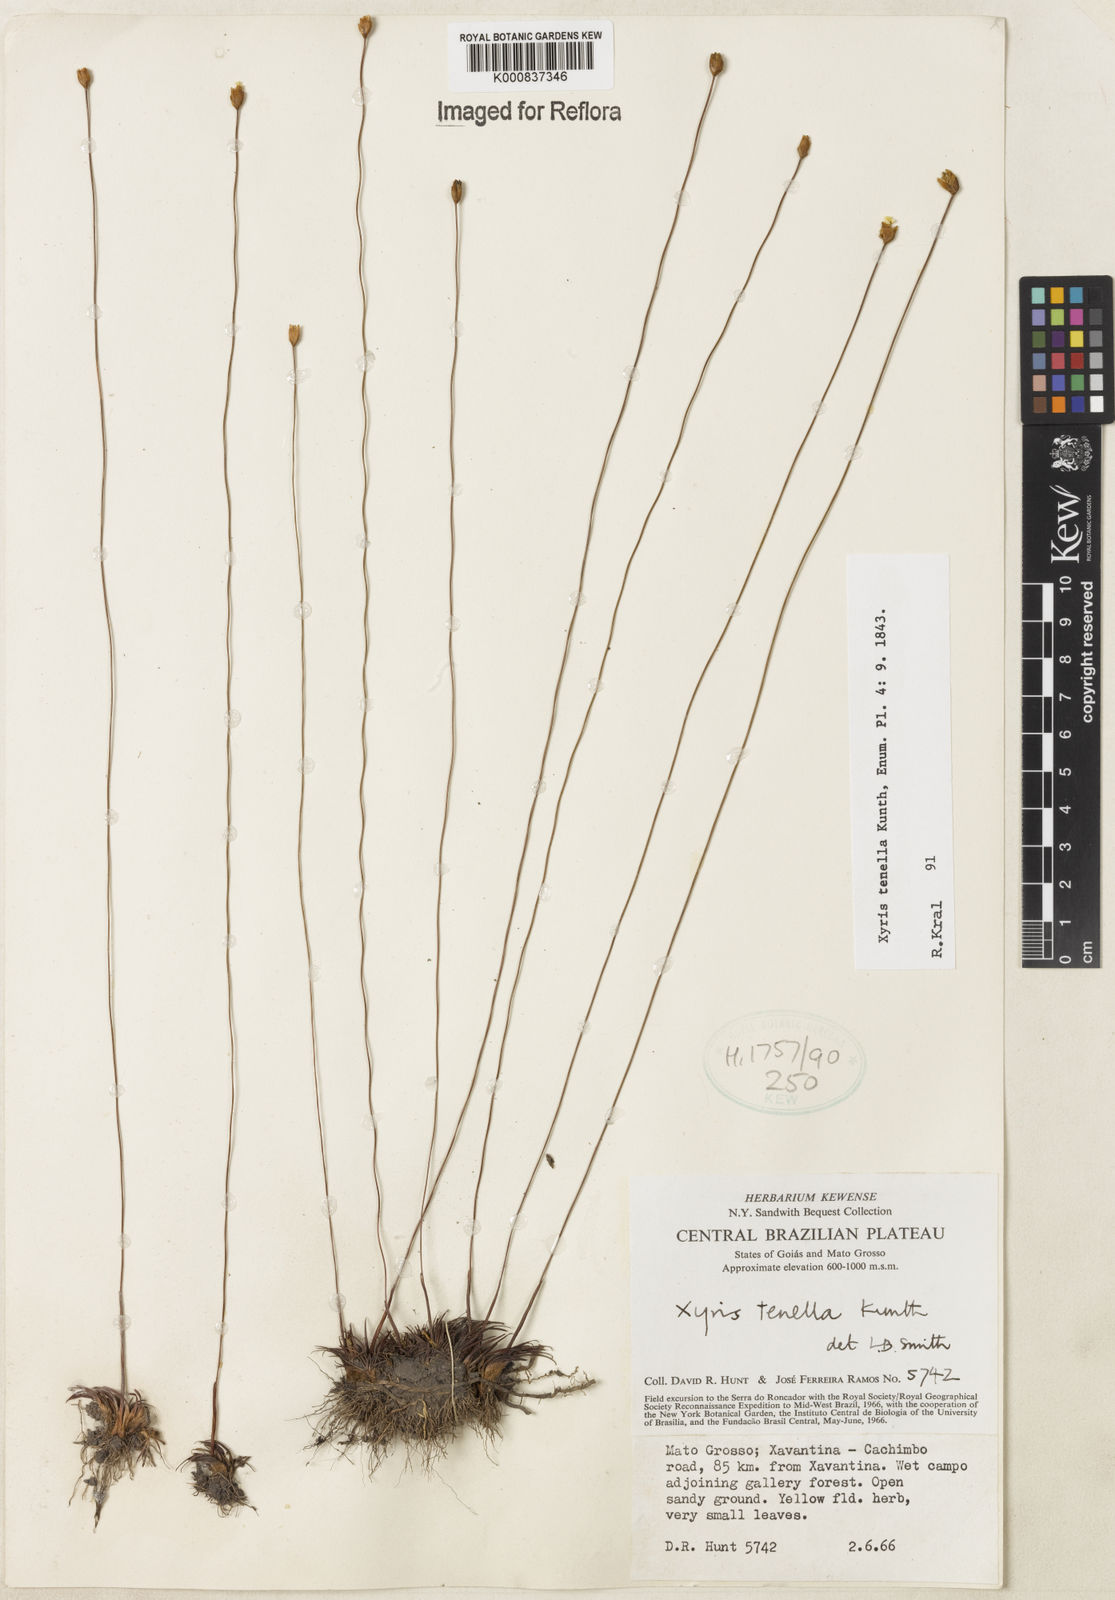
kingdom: Plantae
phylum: Tracheophyta
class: Liliopsida
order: Poales
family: Xyridaceae
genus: Xyris
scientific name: Xyris tenella
